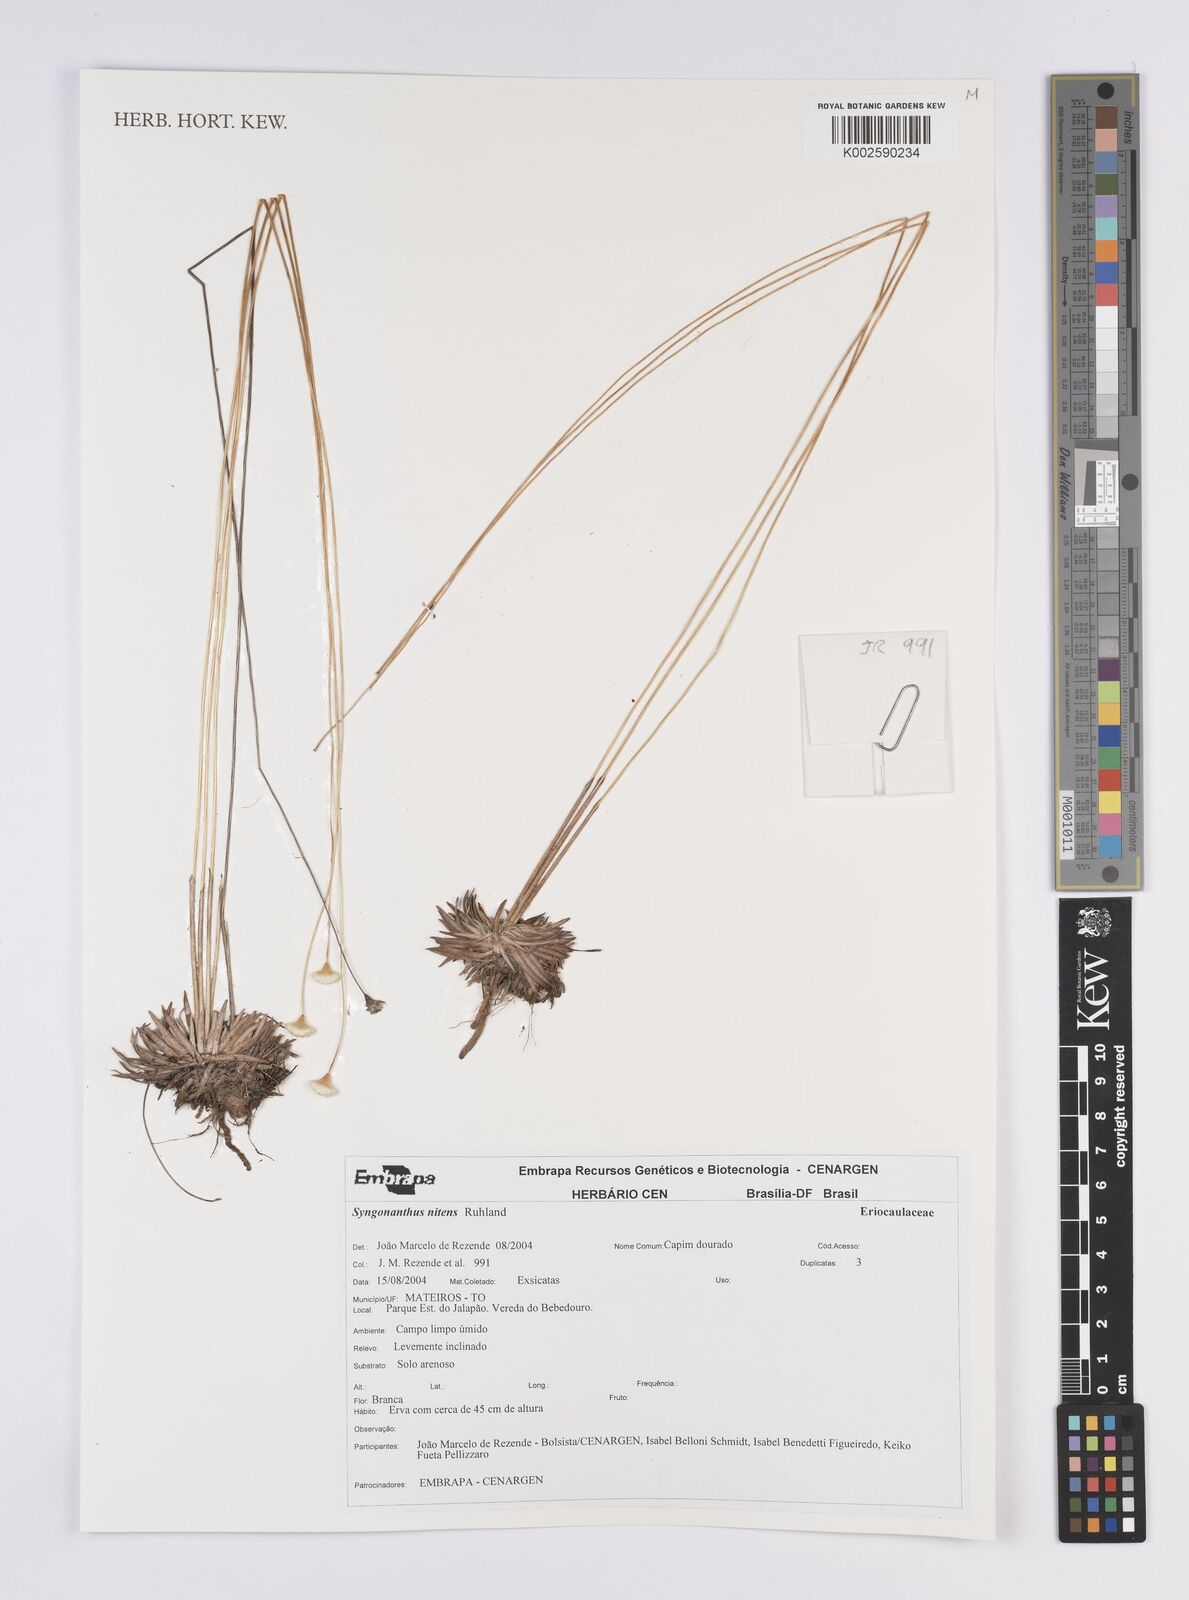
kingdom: Plantae
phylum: Tracheophyta
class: Liliopsida
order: Poales
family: Eriocaulaceae
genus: Syngonanthus
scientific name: Syngonanthus nitens
